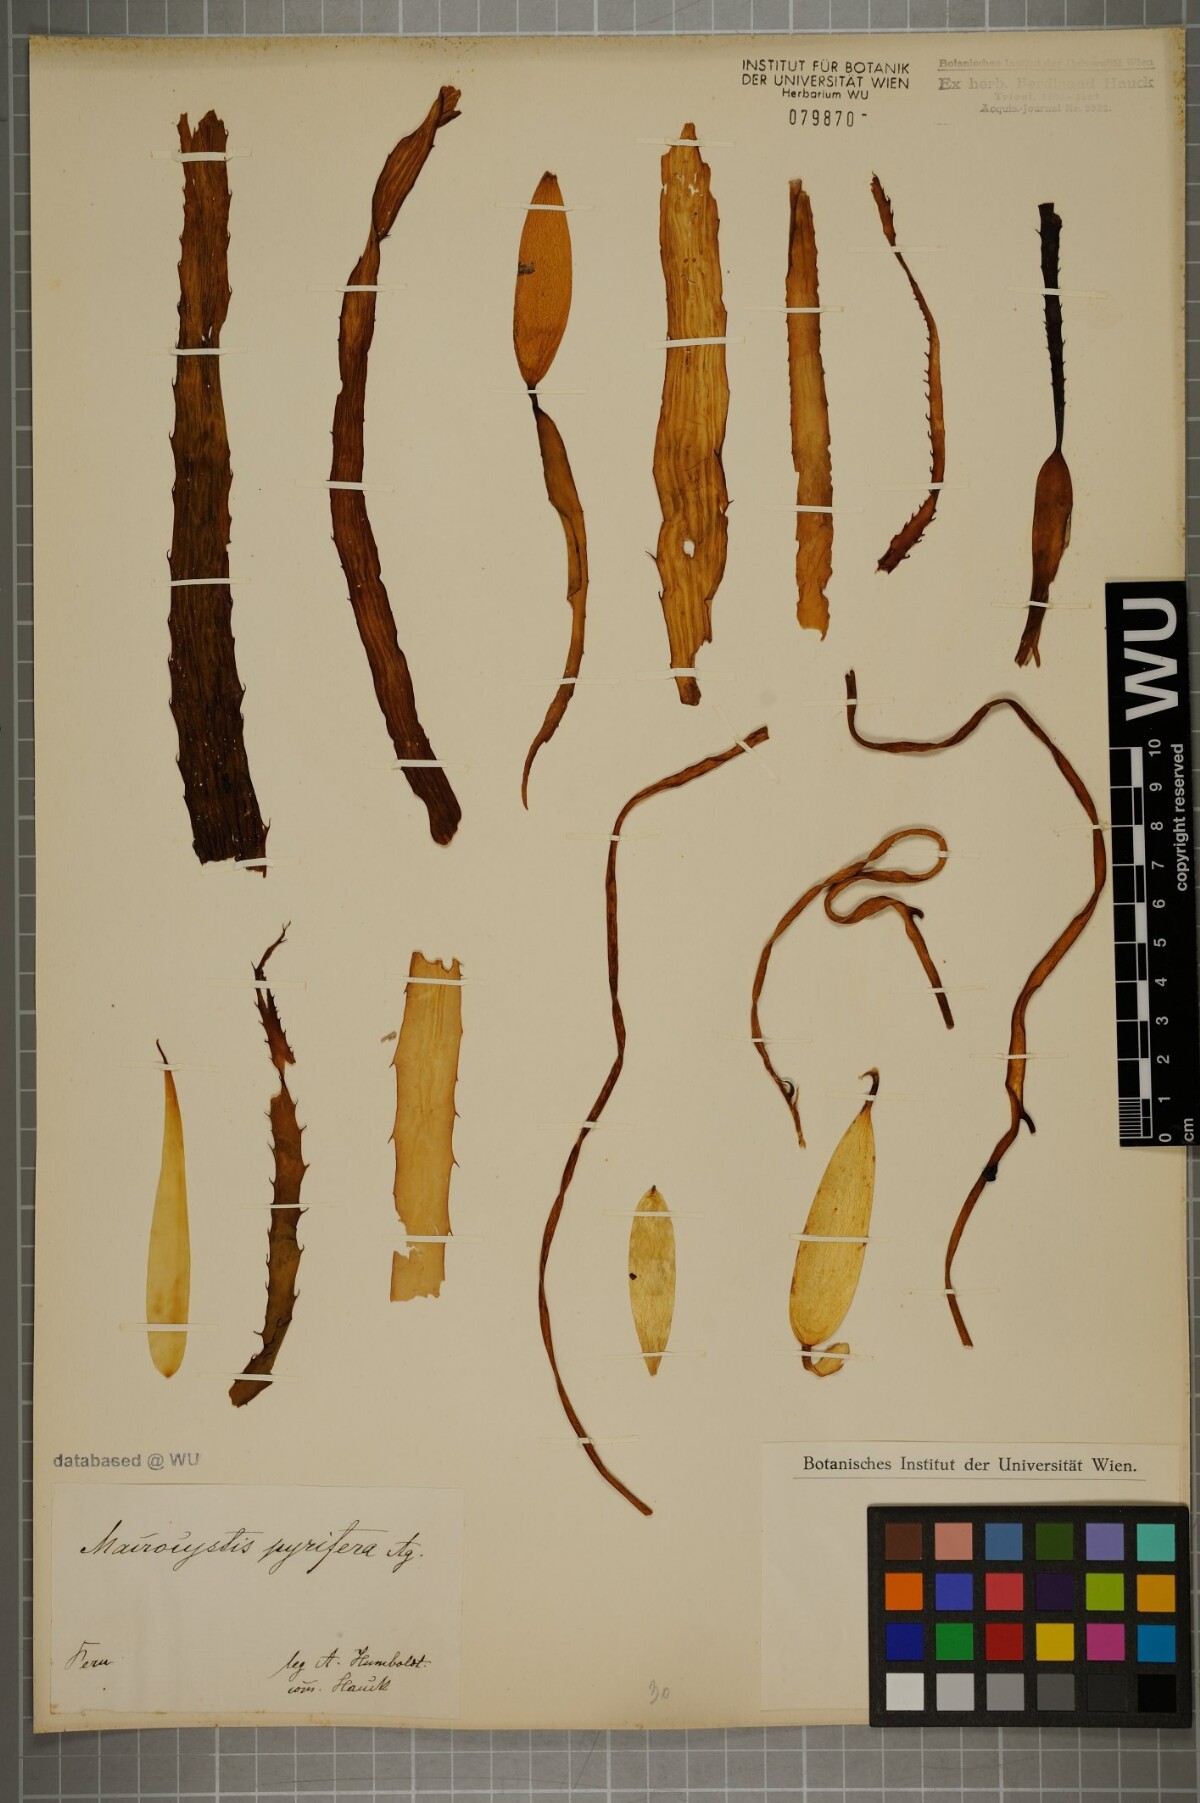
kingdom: Chromista
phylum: Ochrophyta
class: Phaeophyceae
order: Laminariales
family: Laminariaceae
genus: Macrocystis
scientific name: Macrocystis pyrifera
